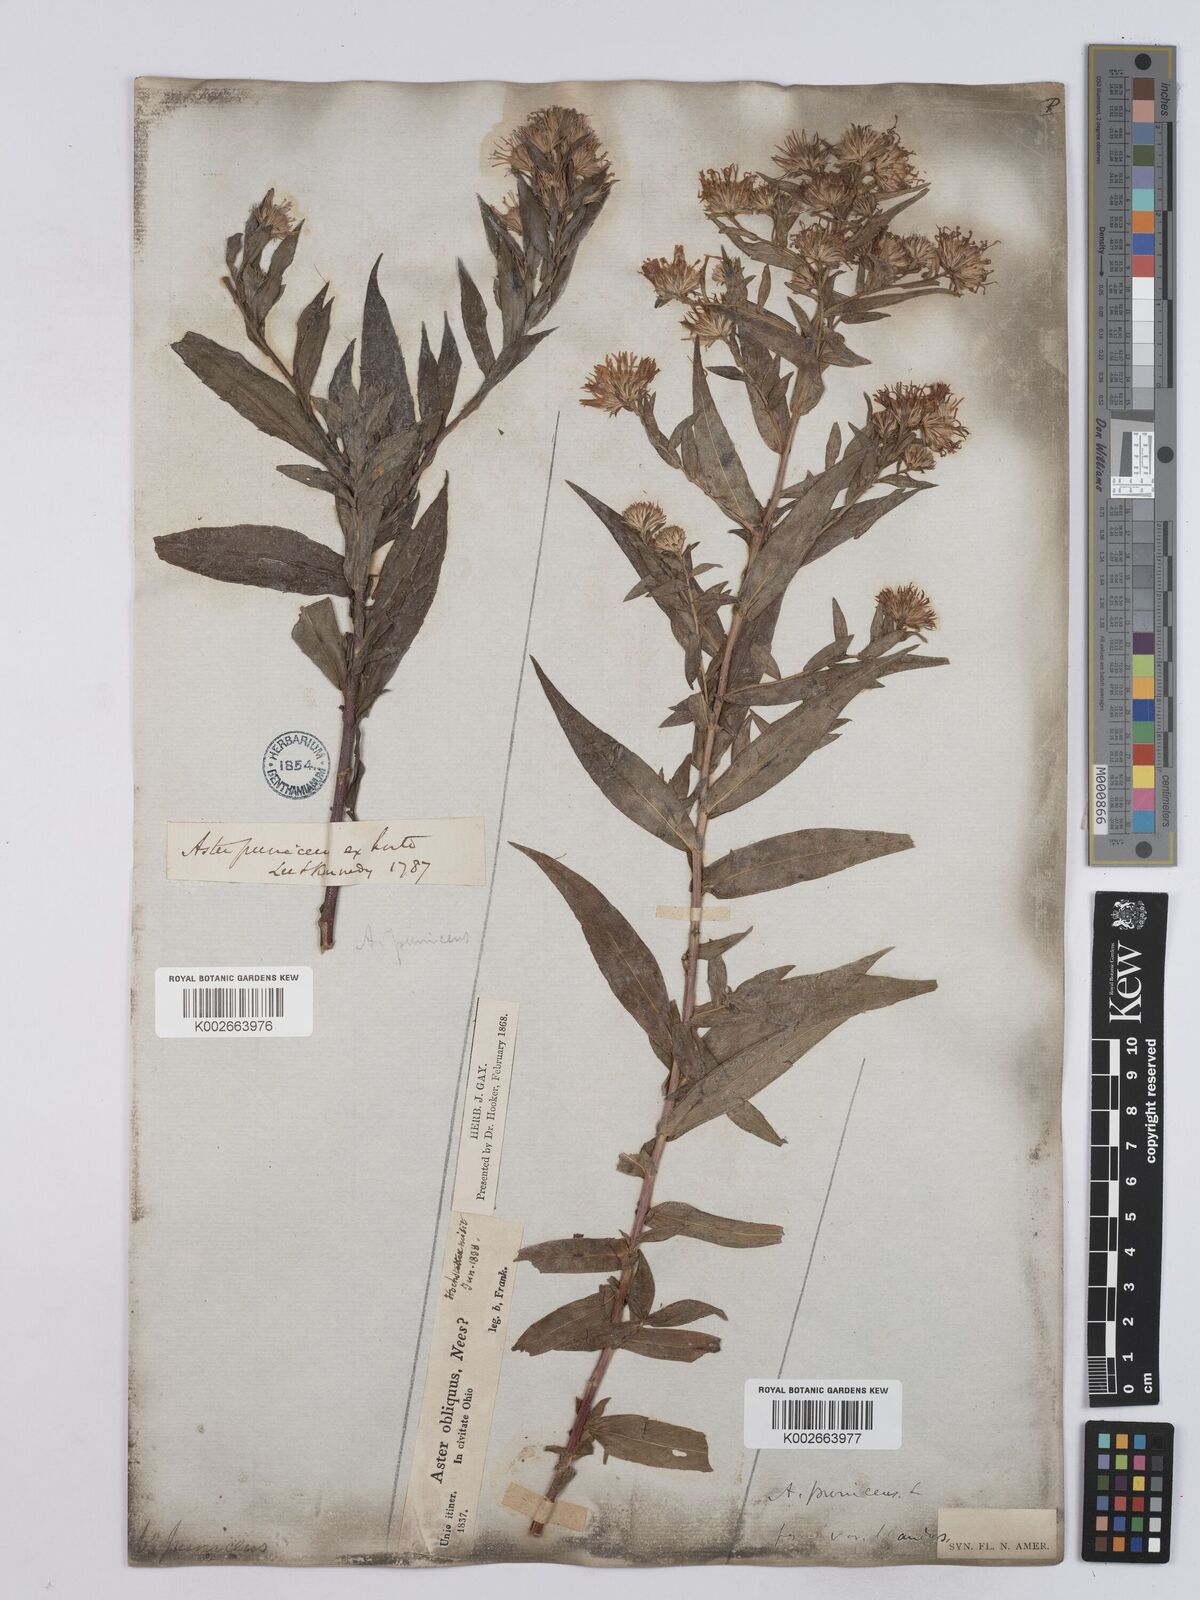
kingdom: Plantae
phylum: Tracheophyta
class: Magnoliopsida
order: Asterales
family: Asteraceae
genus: Symphyotrichum
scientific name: Symphyotrichum puniceum
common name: Bog aster
